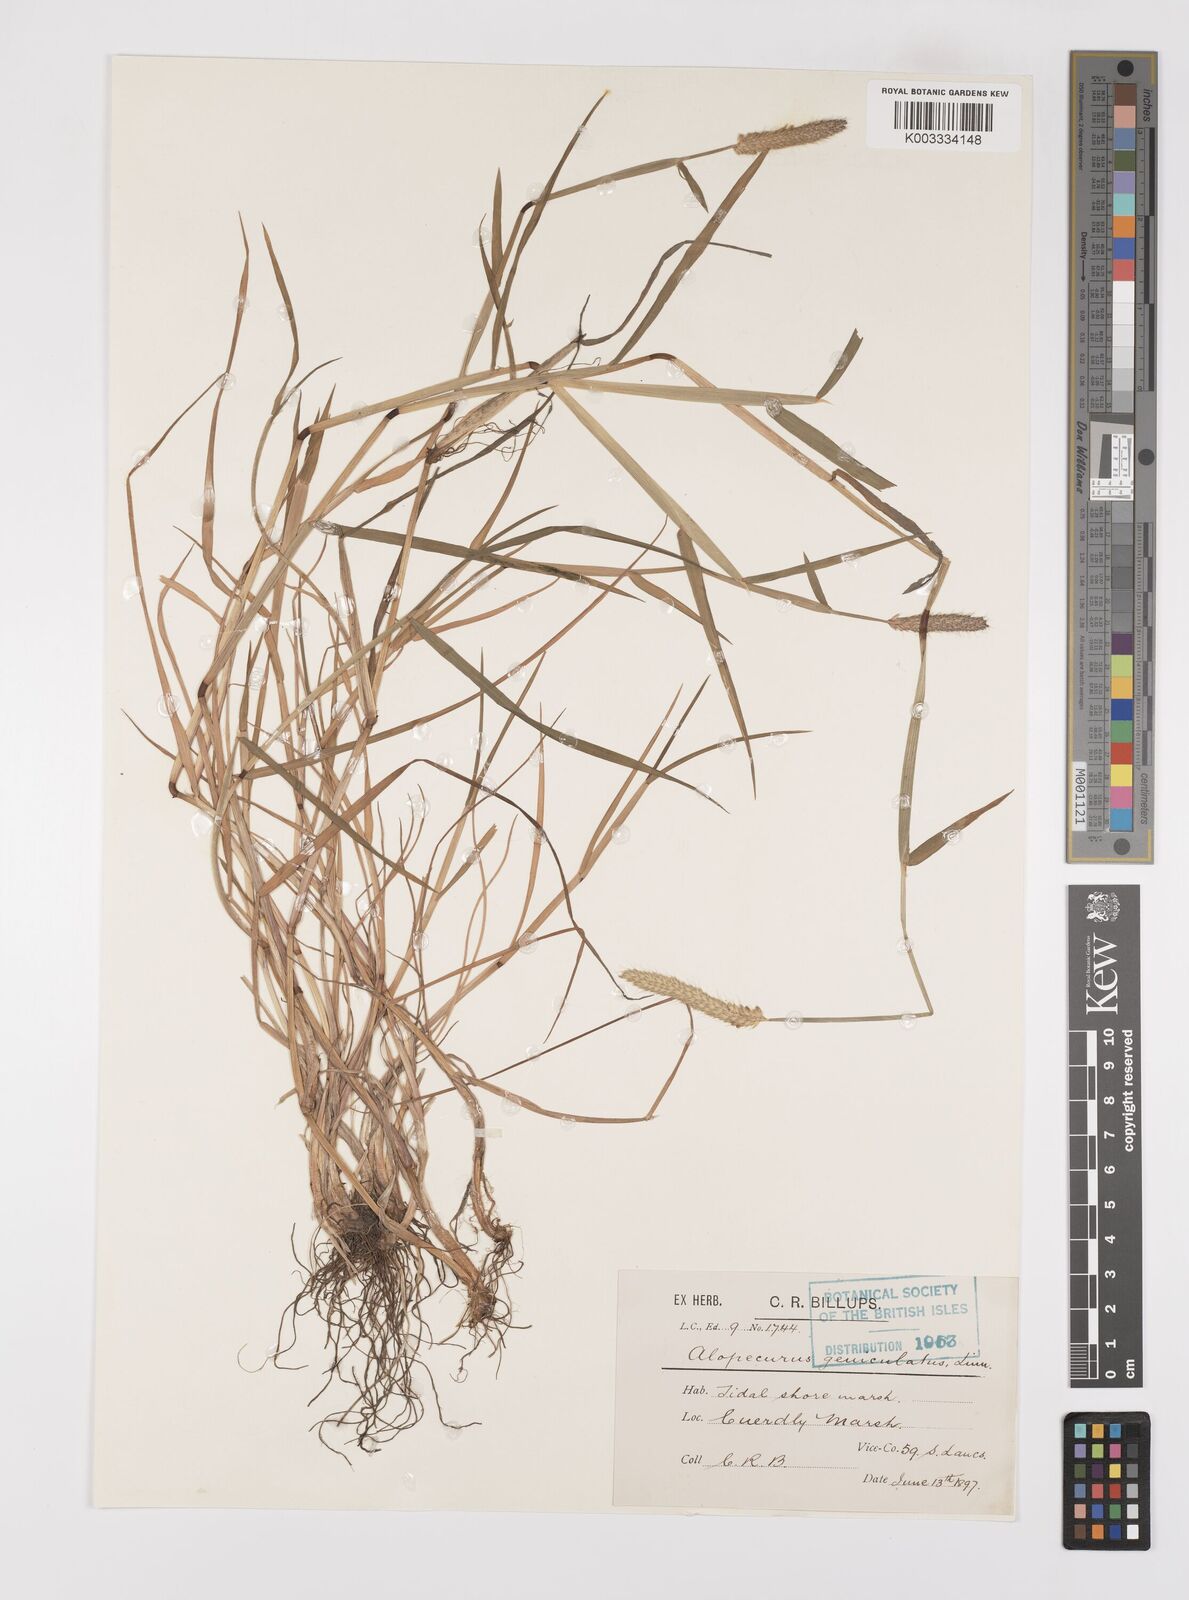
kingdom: Plantae
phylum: Tracheophyta
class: Liliopsida
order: Poales
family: Poaceae
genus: Alopecurus
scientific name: Alopecurus geniculatus
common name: Water foxtail
